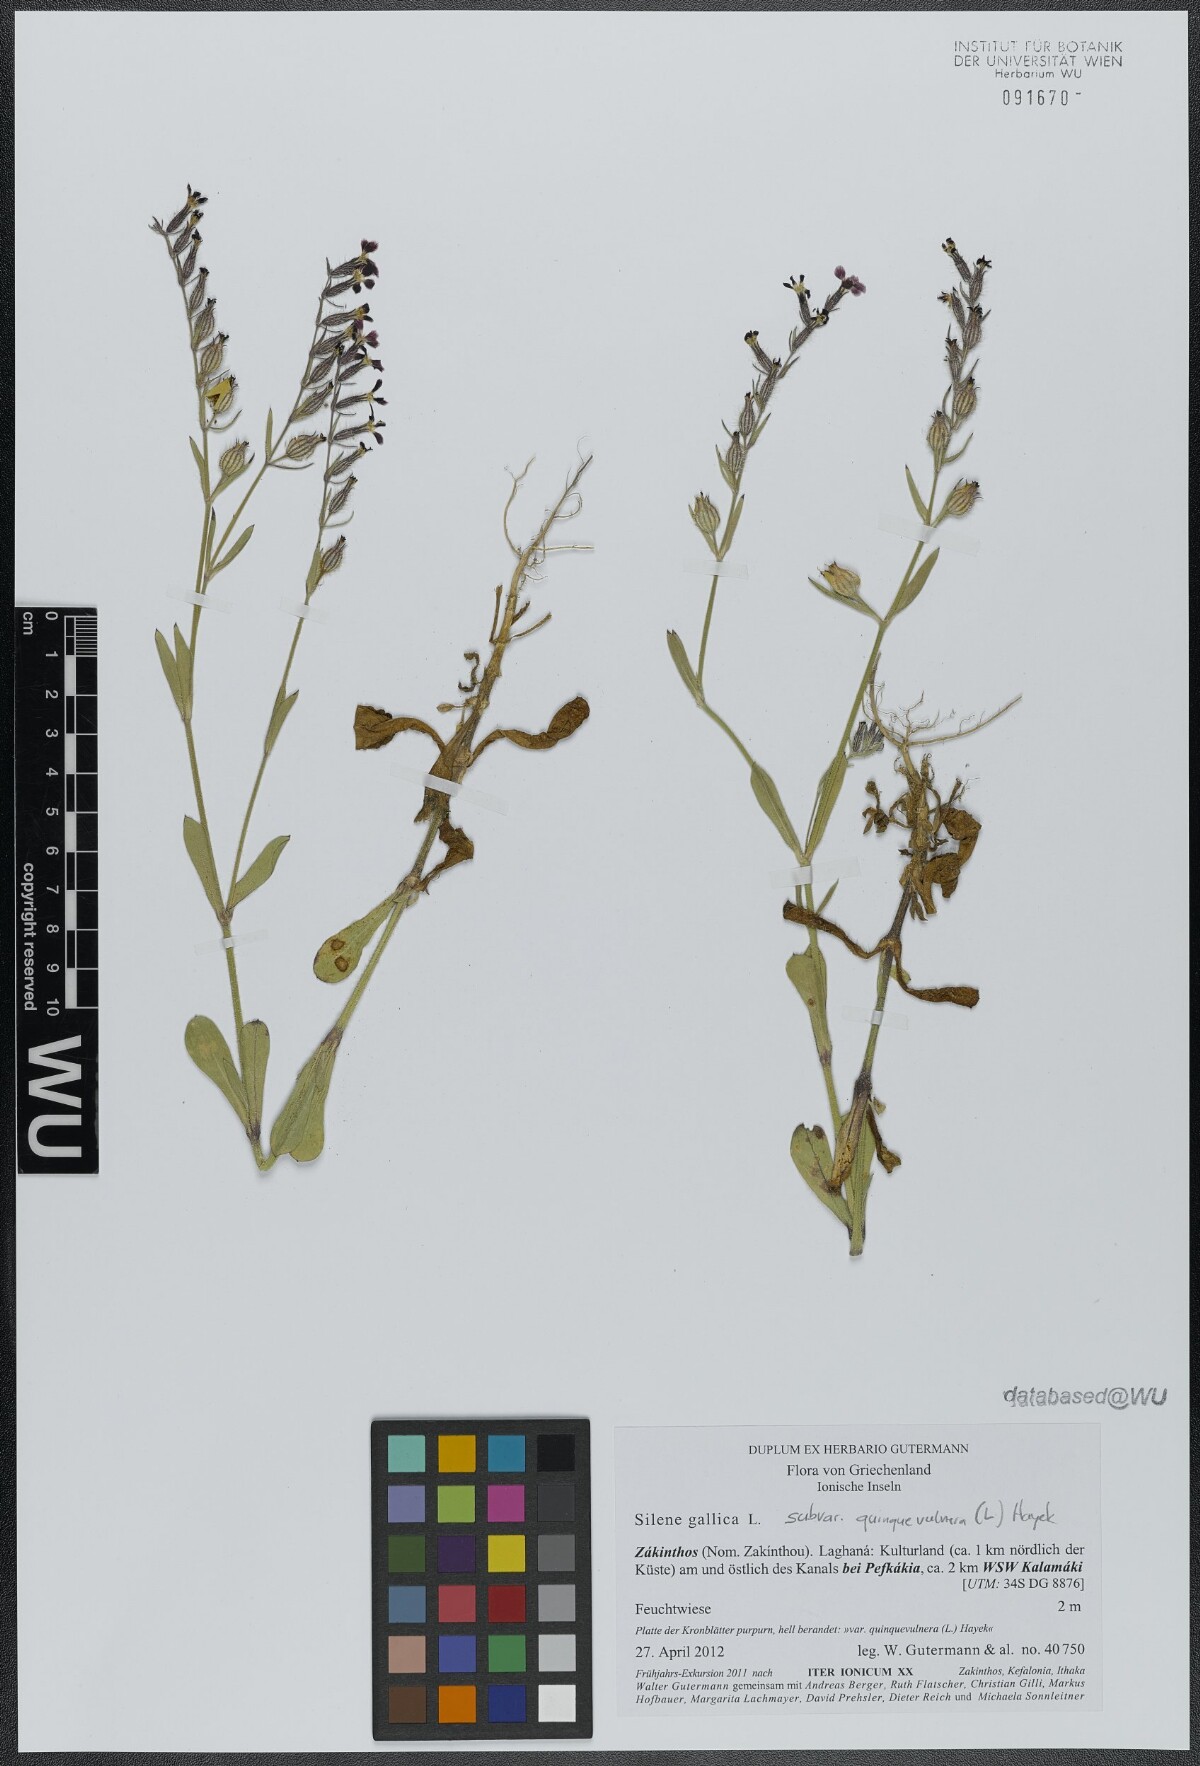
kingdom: Plantae
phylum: Tracheophyta
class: Magnoliopsida
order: Caryophyllales
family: Caryophyllaceae
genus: Silene
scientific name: Silene gallica
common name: Small-flowered catchfly
